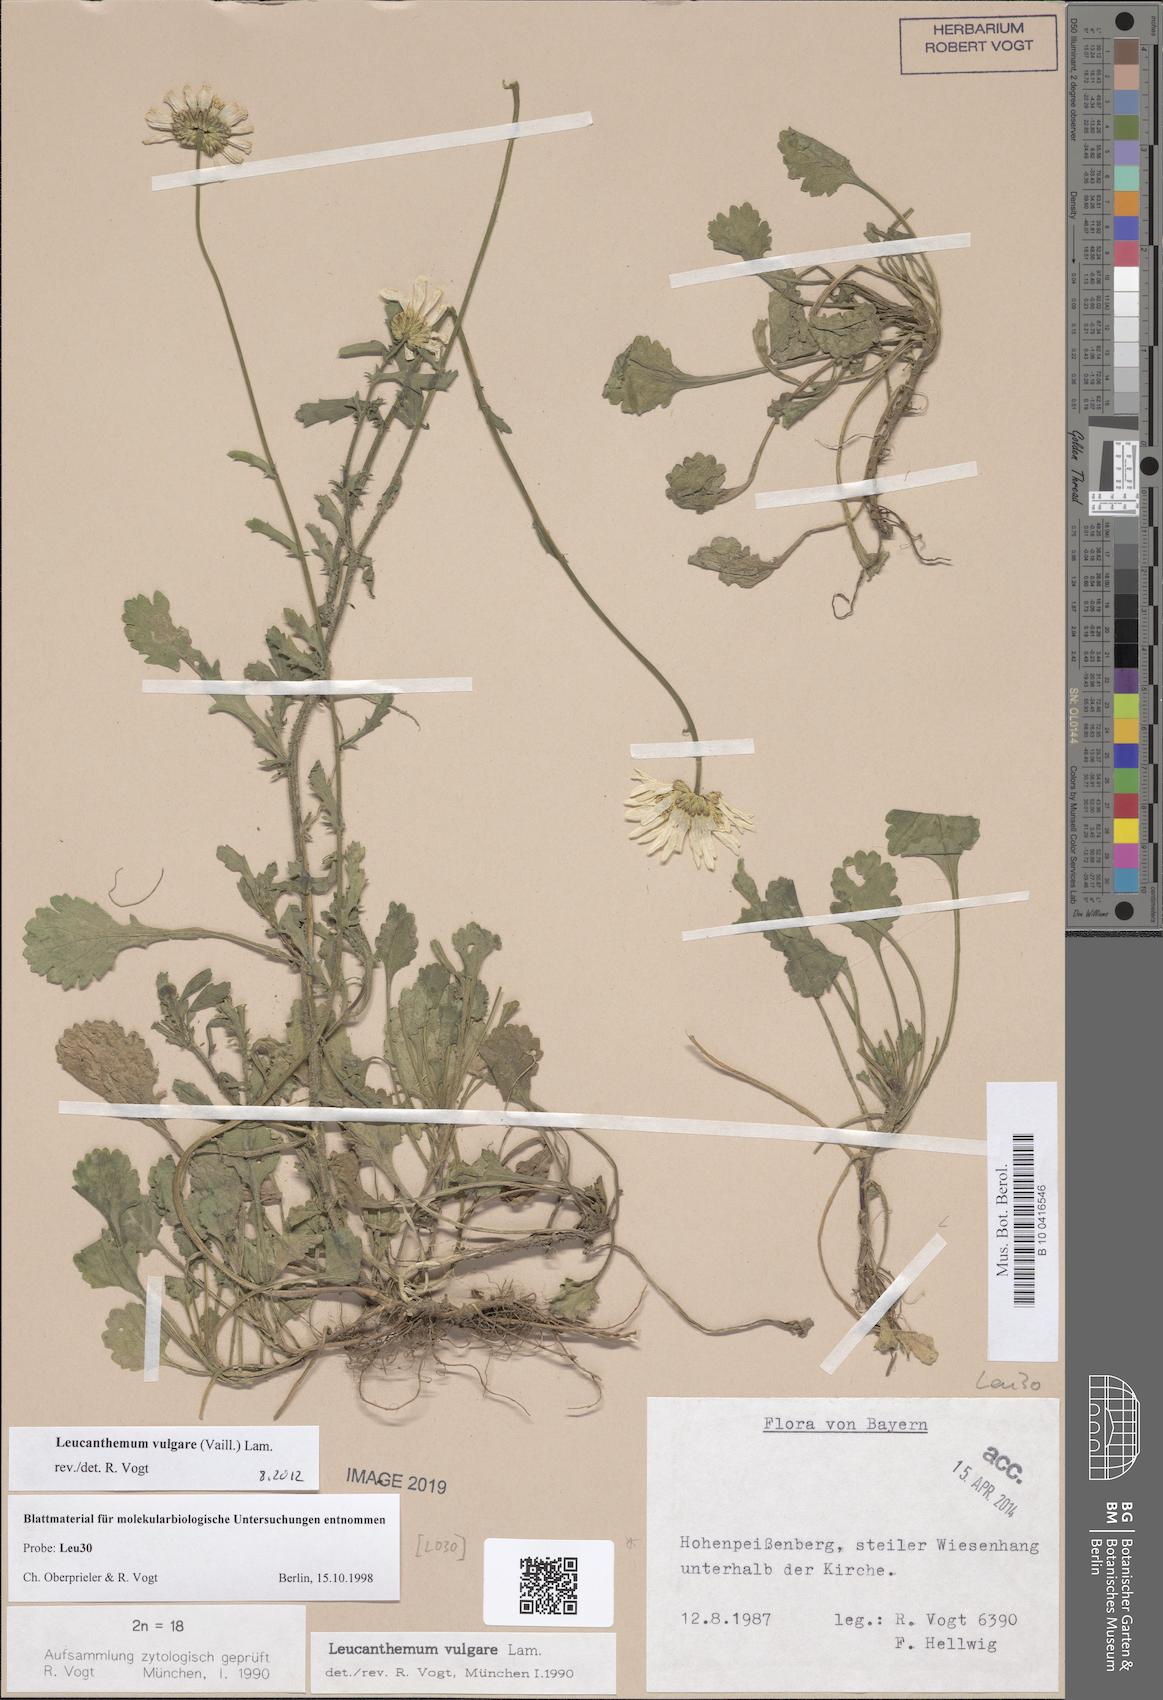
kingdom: Plantae
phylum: Tracheophyta
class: Magnoliopsida
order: Asterales
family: Asteraceae
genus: Leucanthemum
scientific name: Leucanthemum vulgare
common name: Oxeye daisy
